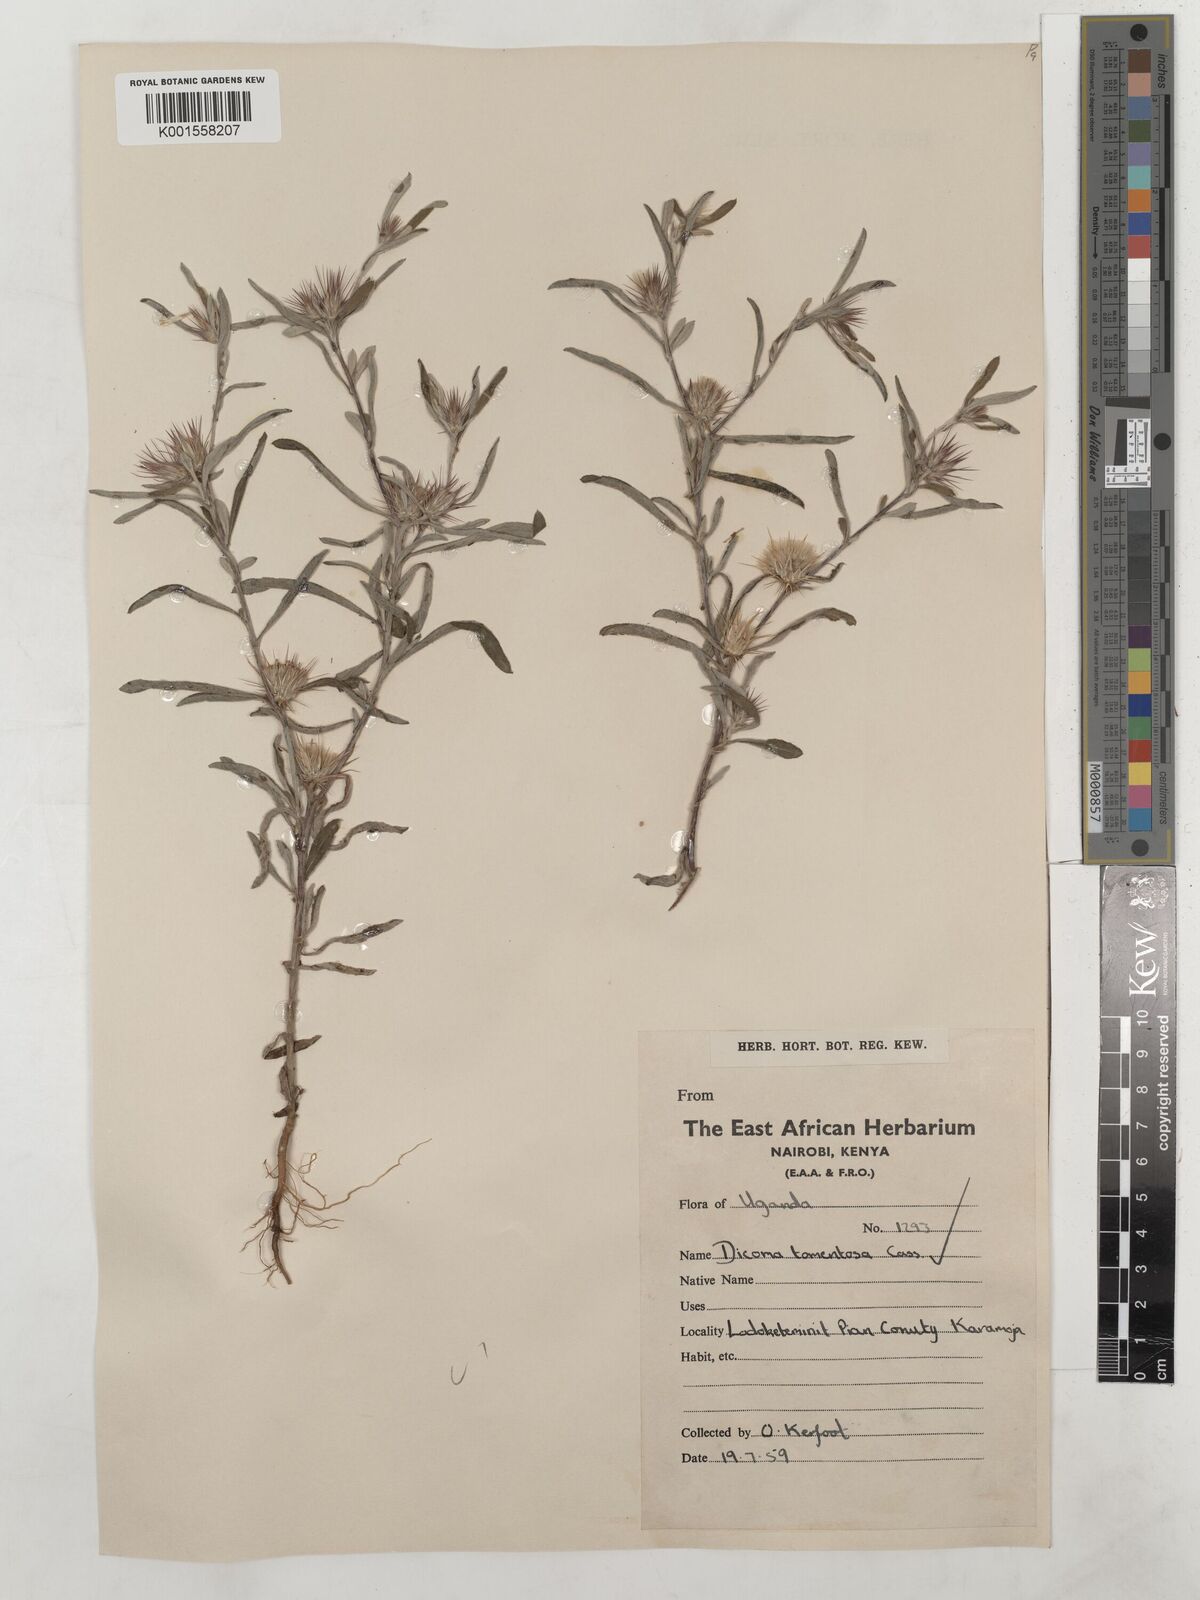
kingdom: Plantae
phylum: Tracheophyta
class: Magnoliopsida
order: Asterales
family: Asteraceae
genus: Dicoma
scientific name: Dicoma tomentosa
